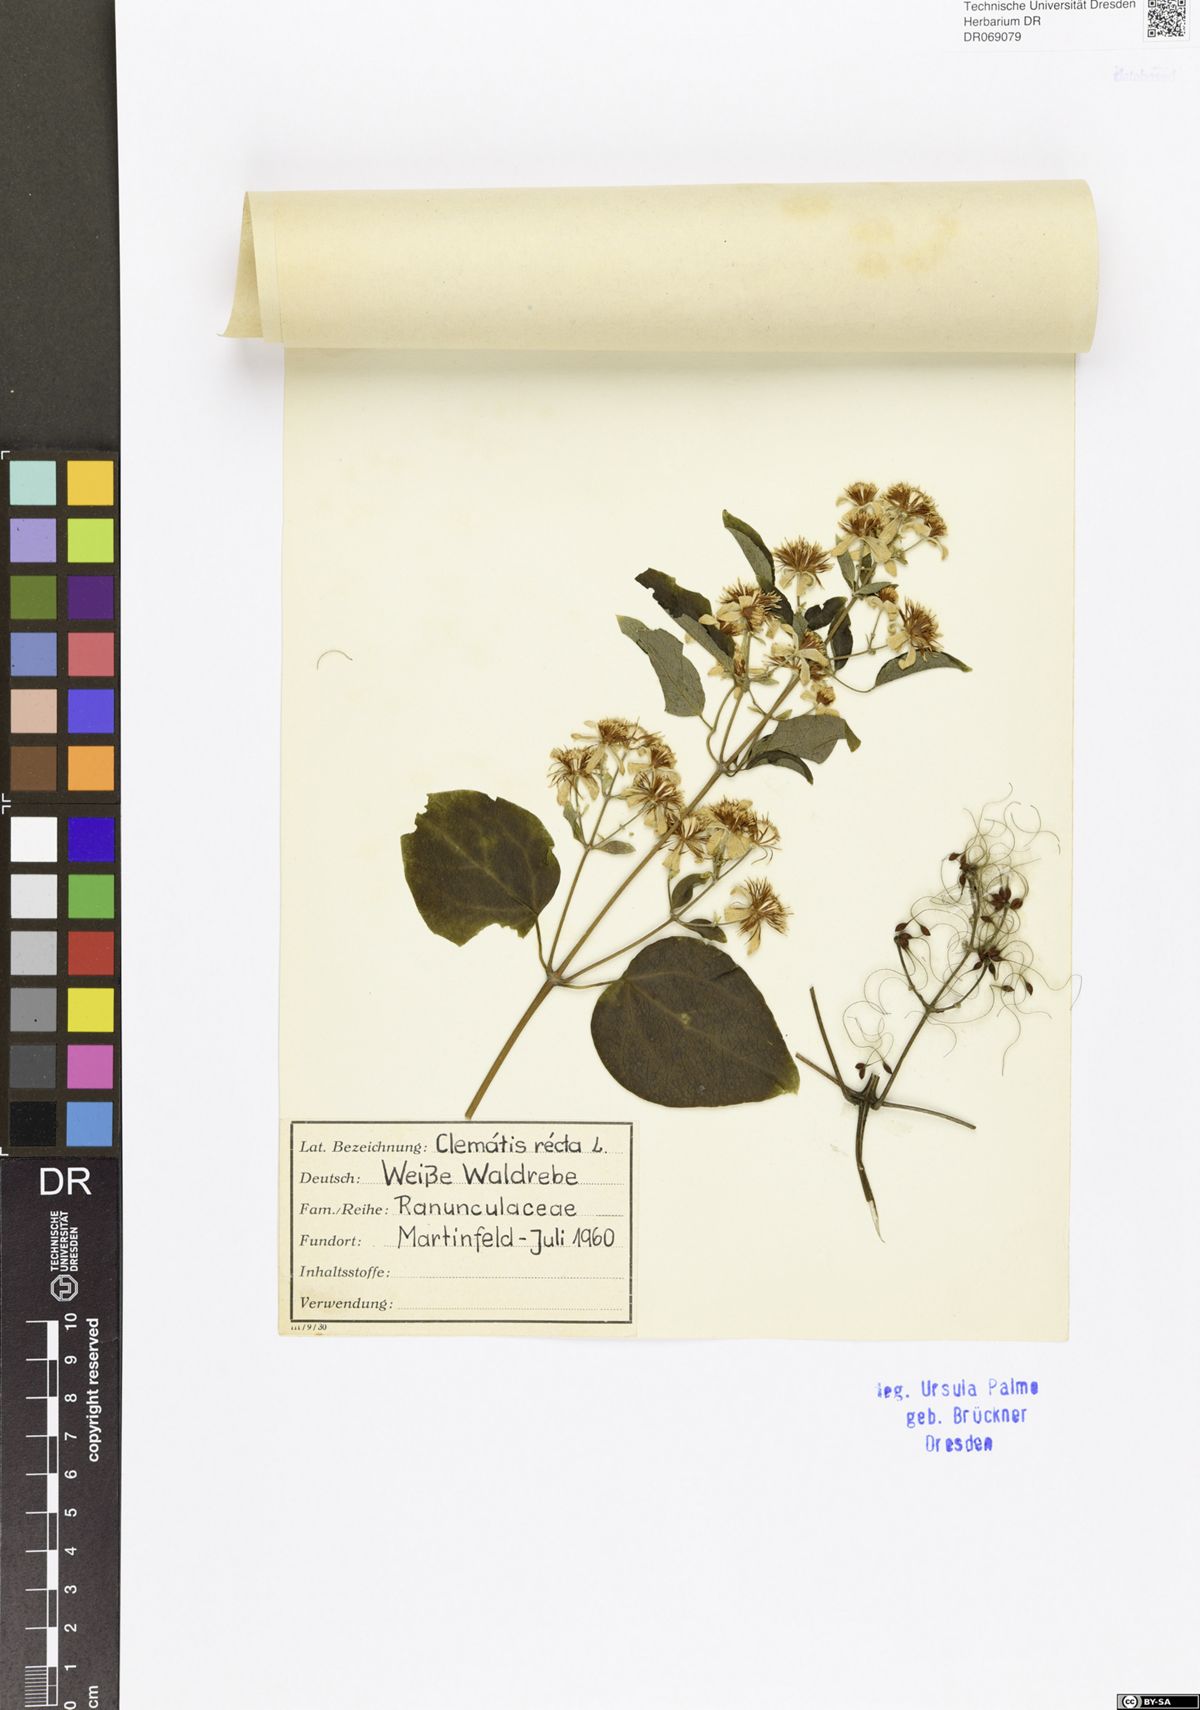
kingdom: Plantae
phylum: Tracheophyta
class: Magnoliopsida
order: Ranunculales
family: Ranunculaceae
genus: Clematis
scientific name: Clematis recta
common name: Ground clematis
